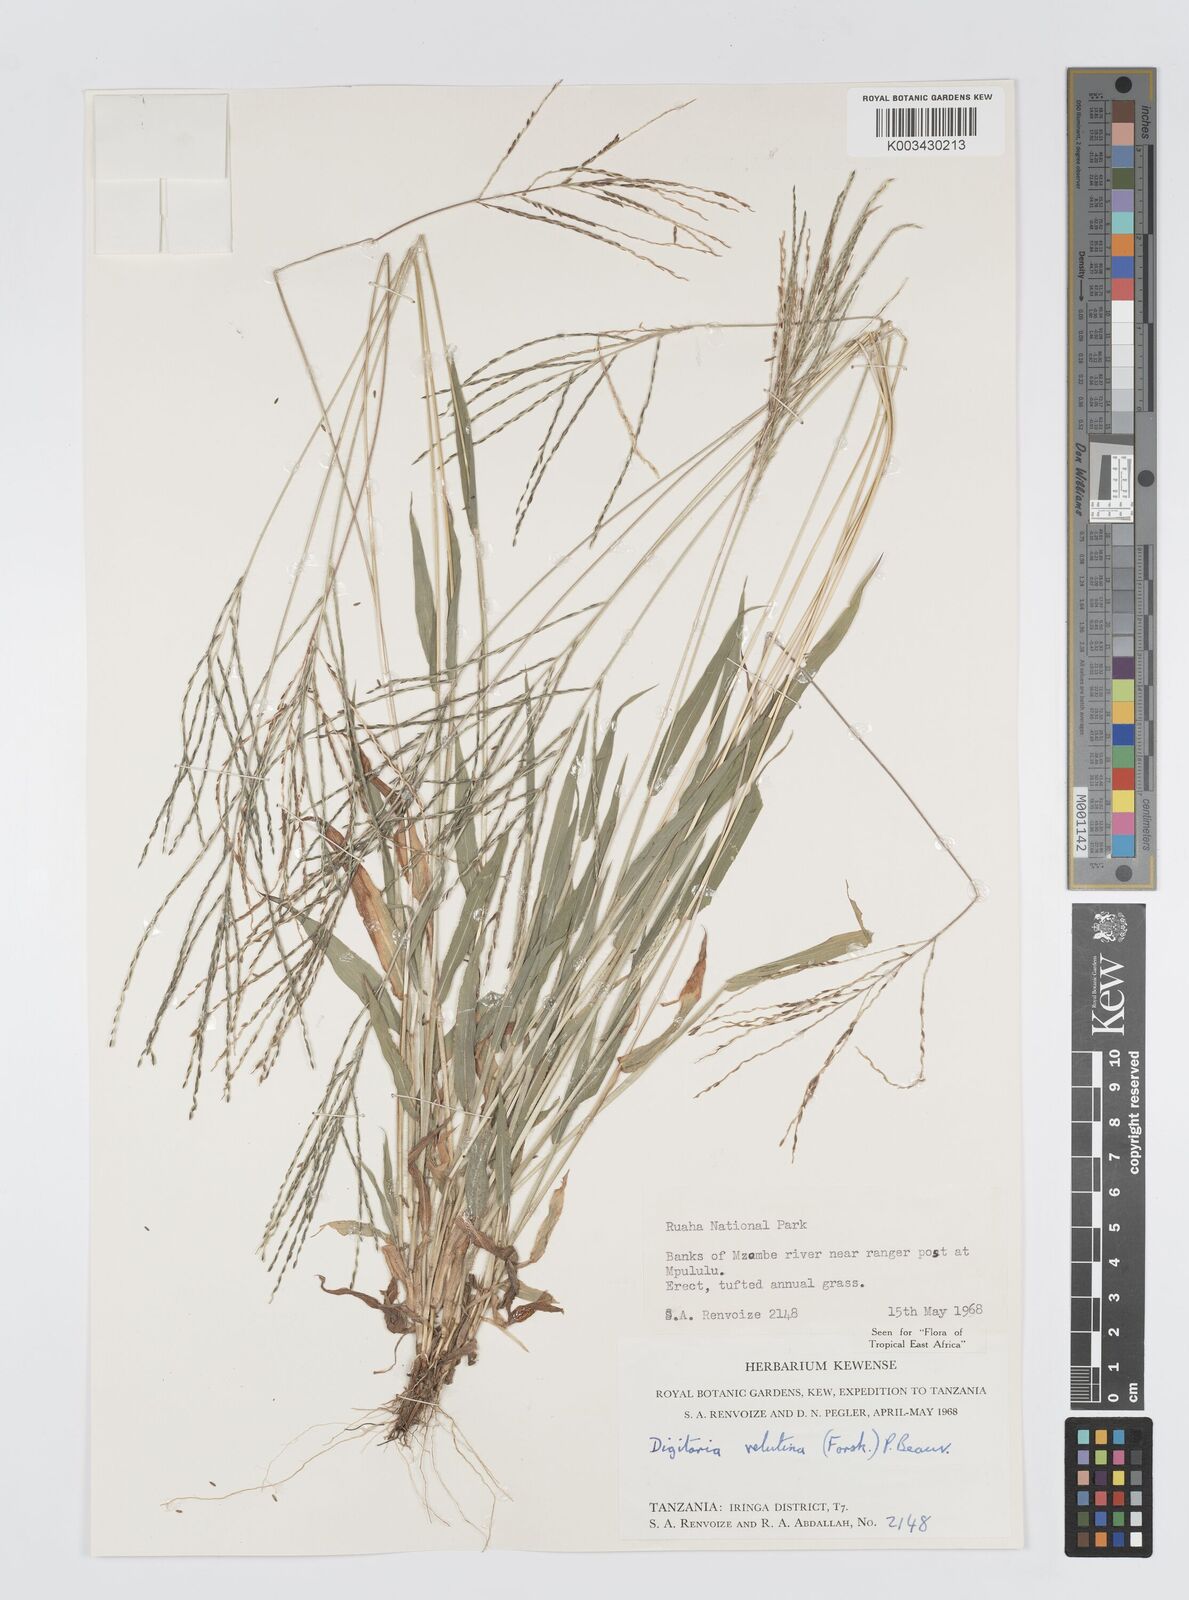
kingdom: Plantae
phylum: Tracheophyta
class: Liliopsida
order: Poales
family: Poaceae
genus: Digitaria
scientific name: Digitaria velutina
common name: Long-plume finger grass
